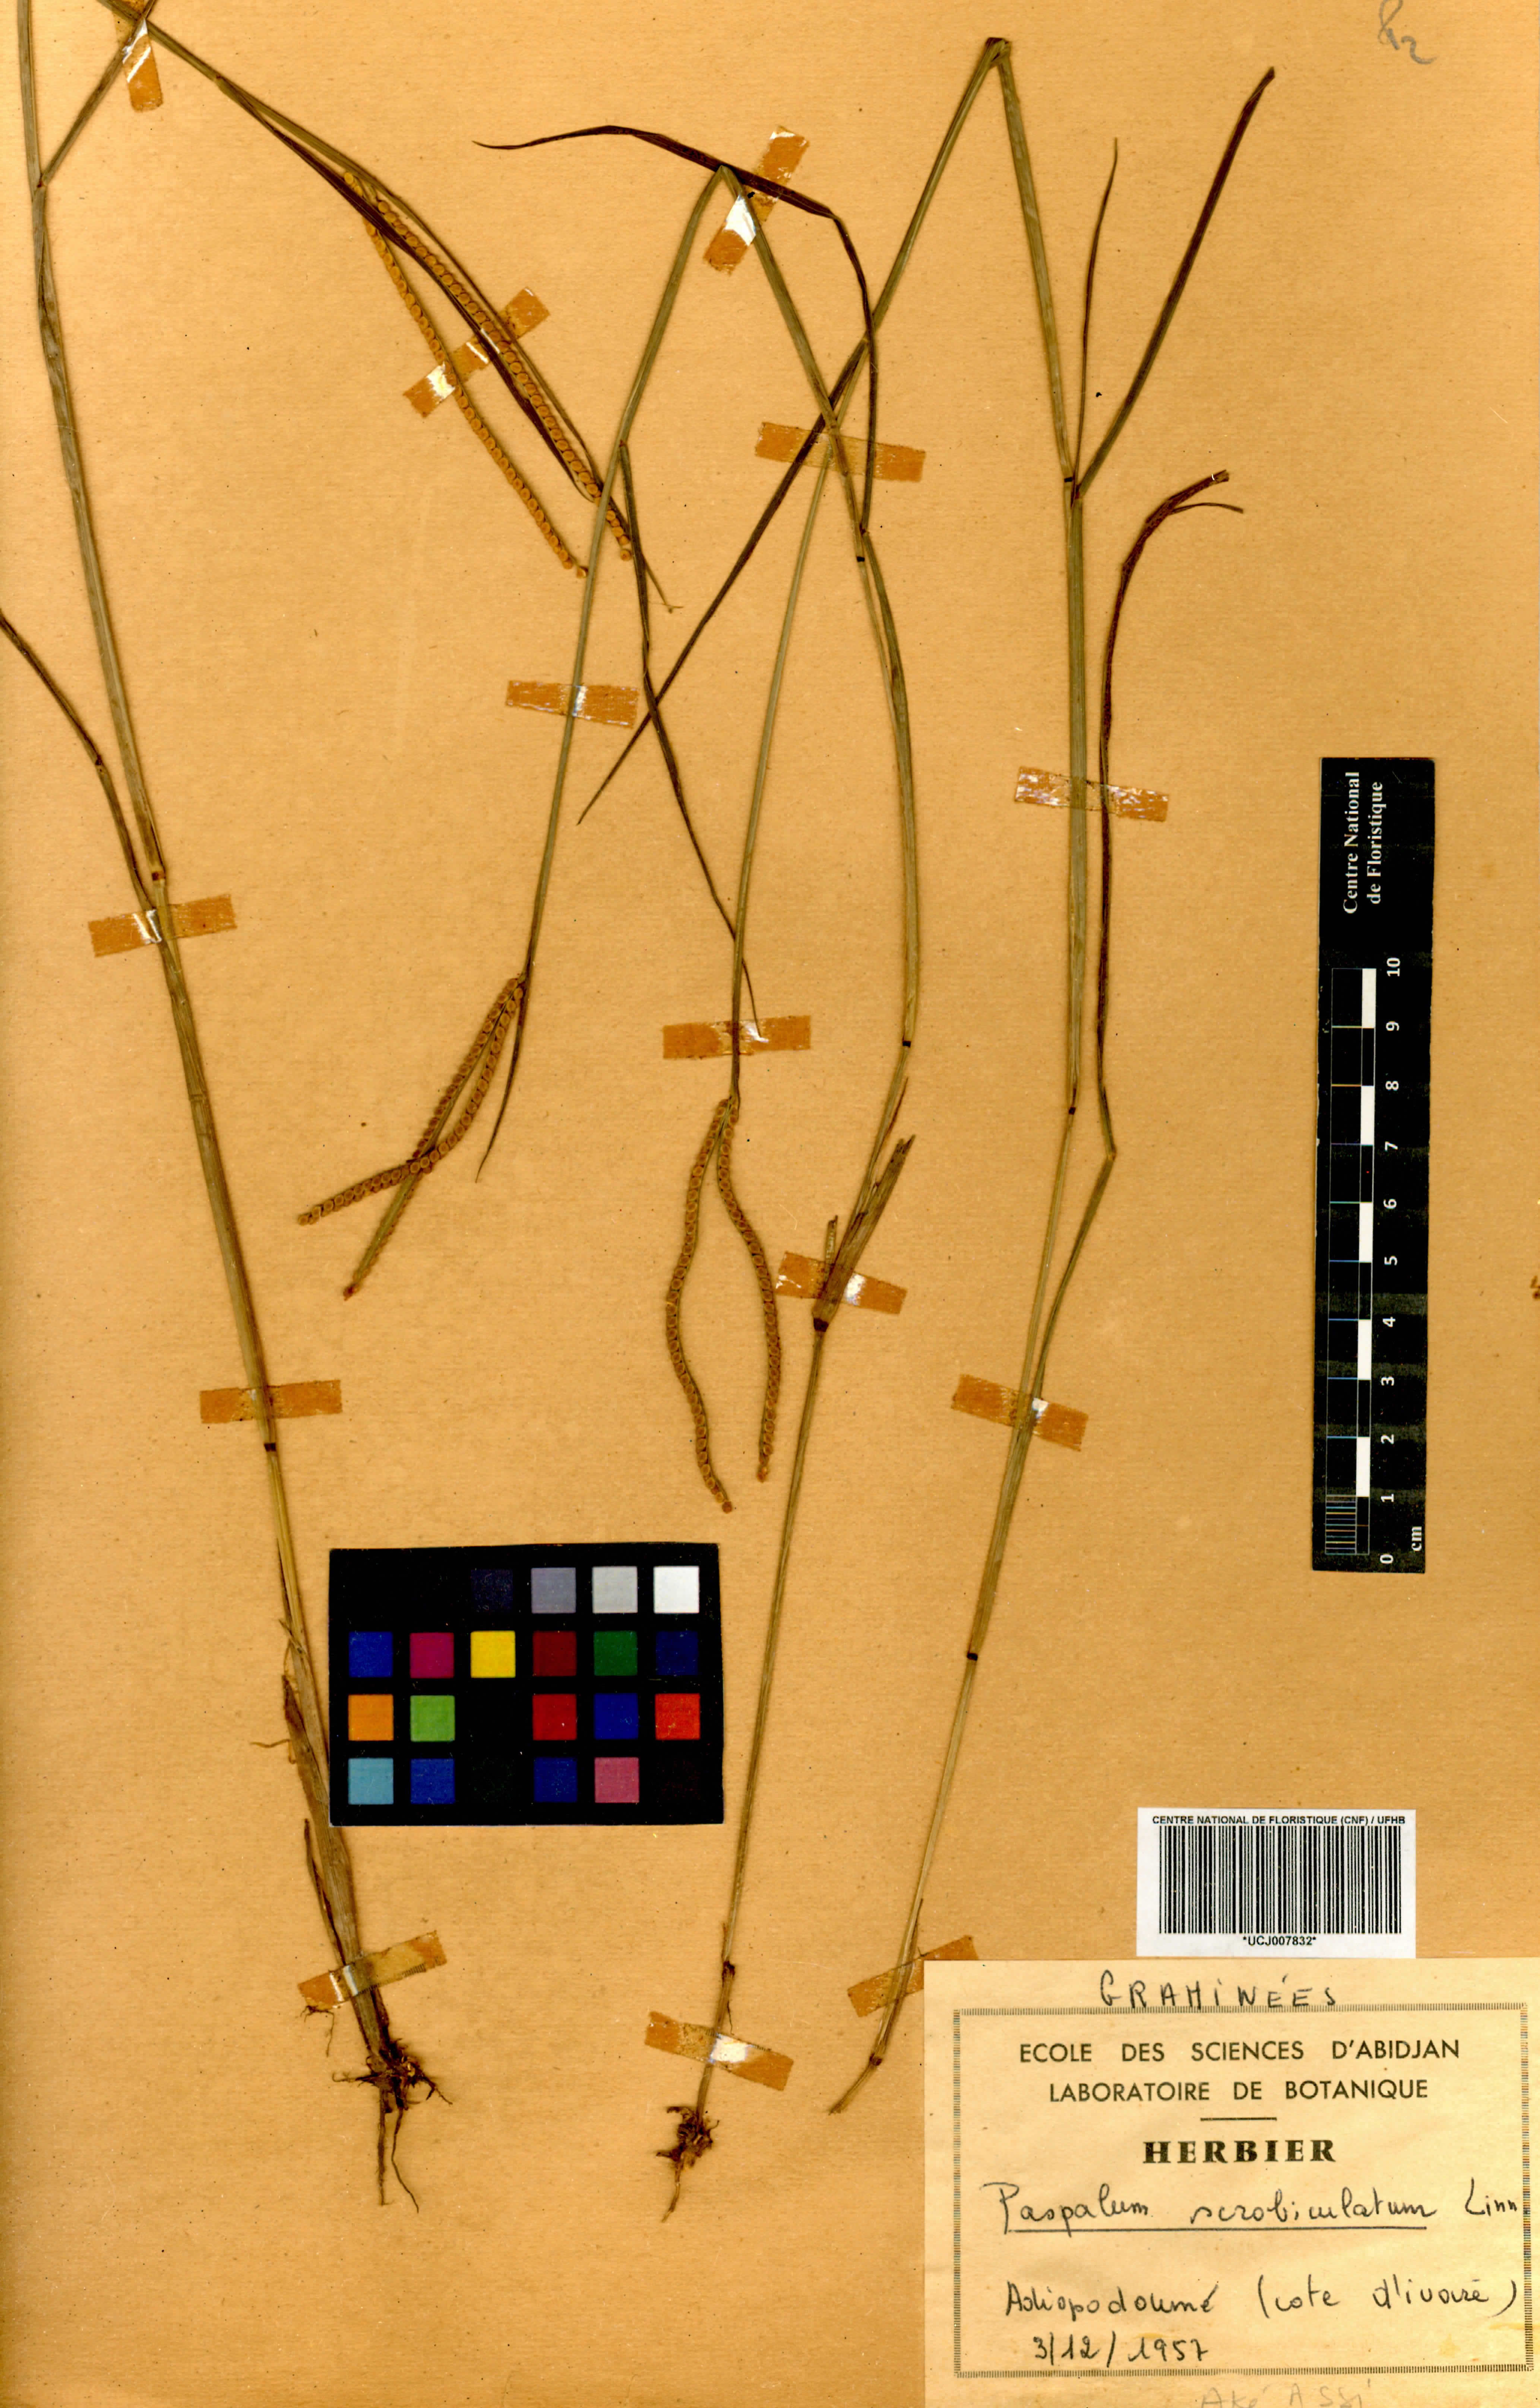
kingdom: Plantae
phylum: Tracheophyta
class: Liliopsida
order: Poales
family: Poaceae
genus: Paspalum
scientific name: Paspalum scrobiculatum
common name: Kodo millet
